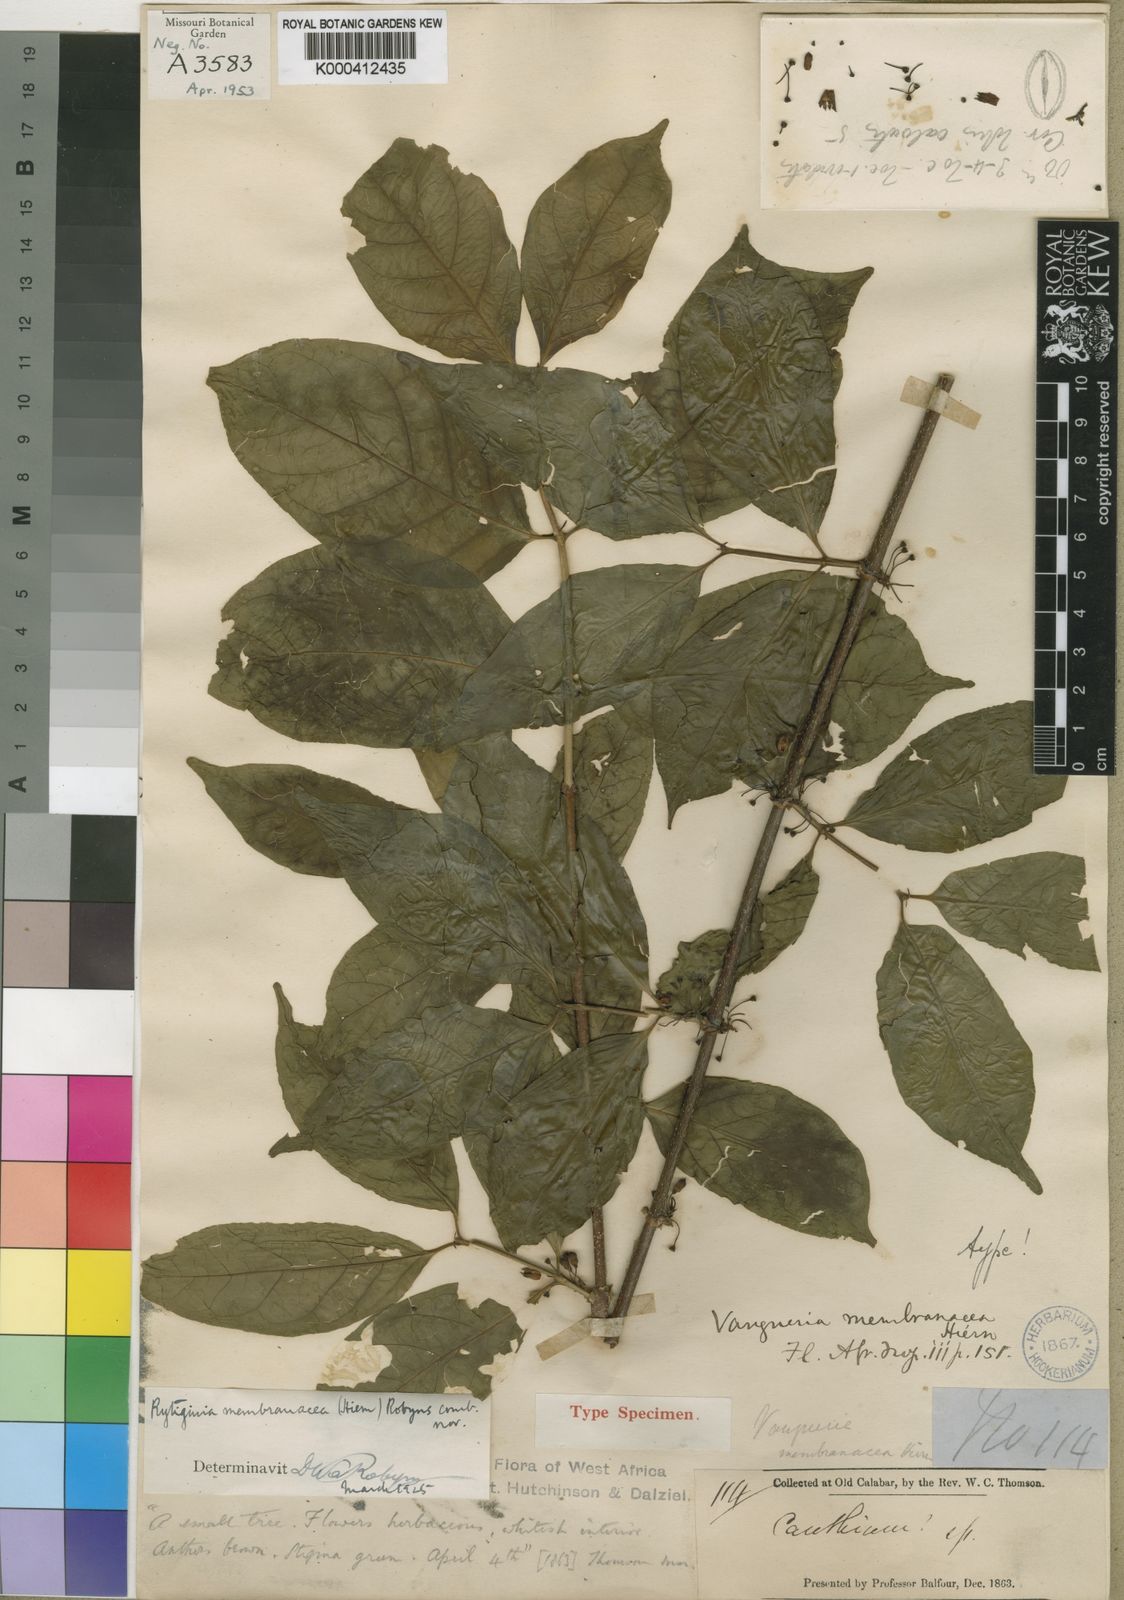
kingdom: Plantae
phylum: Tracheophyta
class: Magnoliopsida
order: Gentianales
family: Rubiaceae
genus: Rytigynia
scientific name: Rytigynia membranacea
